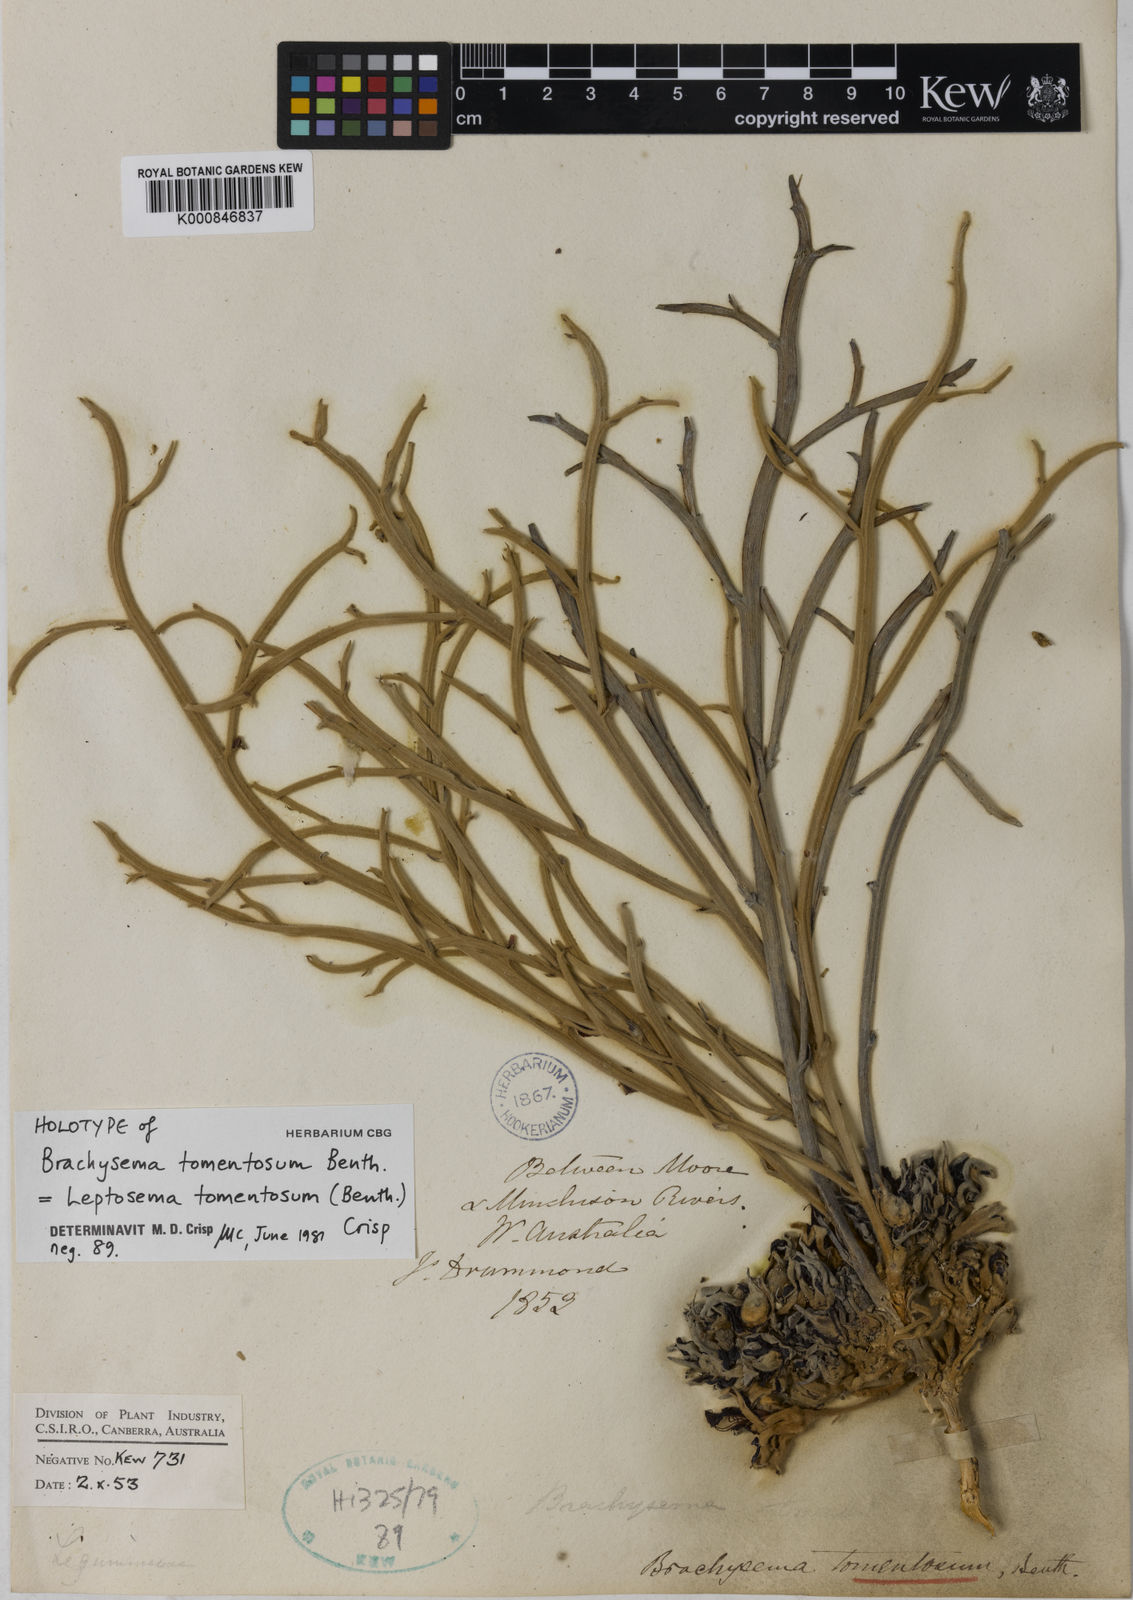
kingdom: Plantae
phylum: Tracheophyta
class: Magnoliopsida
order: Fabales
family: Fabaceae
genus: Leptosema
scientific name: Leptosema tomentosum
